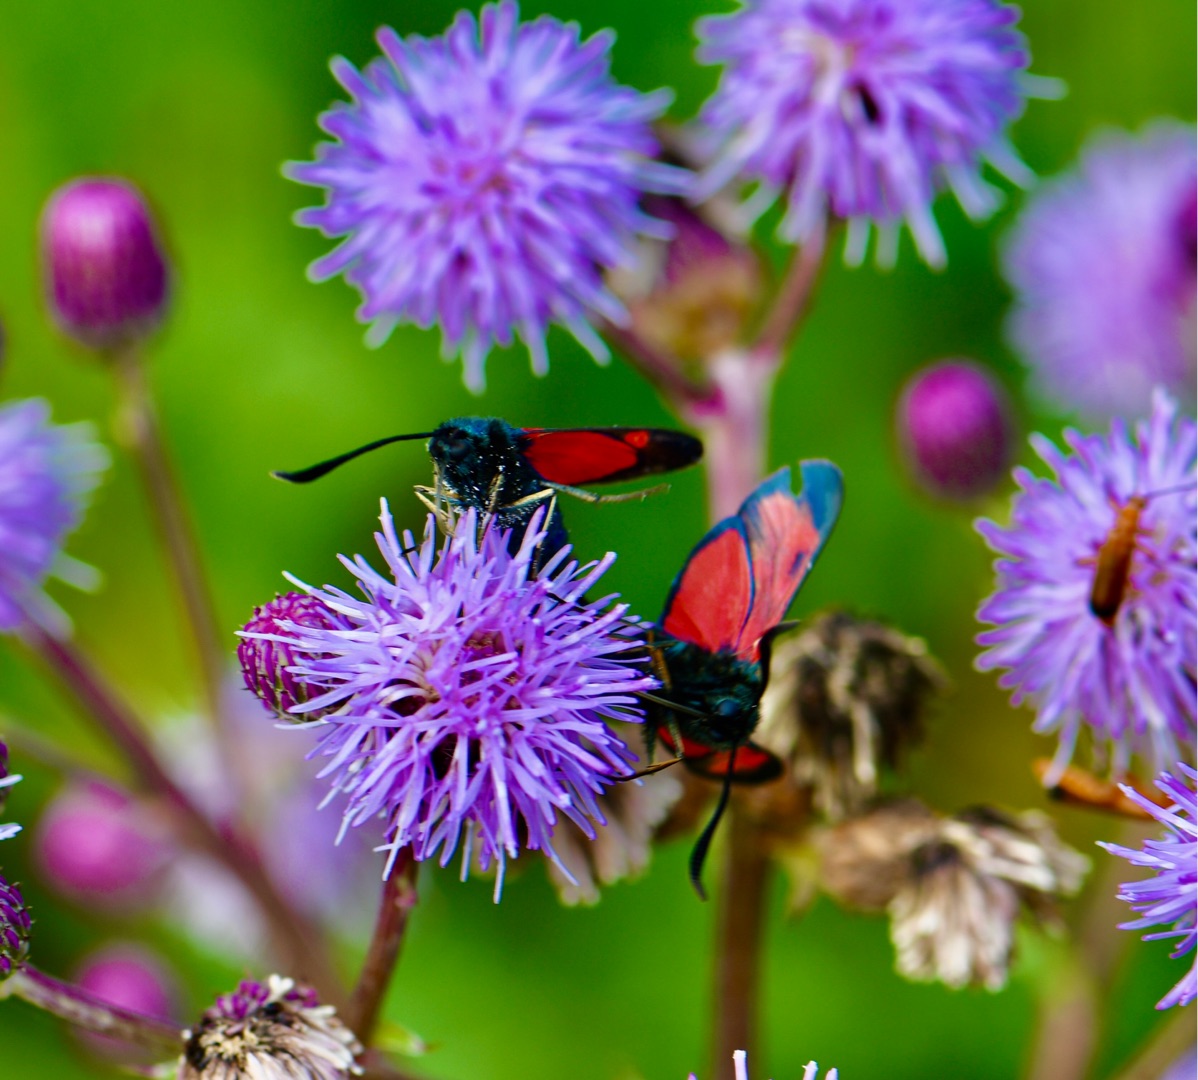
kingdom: Animalia
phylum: Arthropoda
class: Insecta
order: Lepidoptera
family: Zygaenidae
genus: Zygaena
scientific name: Zygaena filipendulae
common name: Seksplettet køllesværmer
